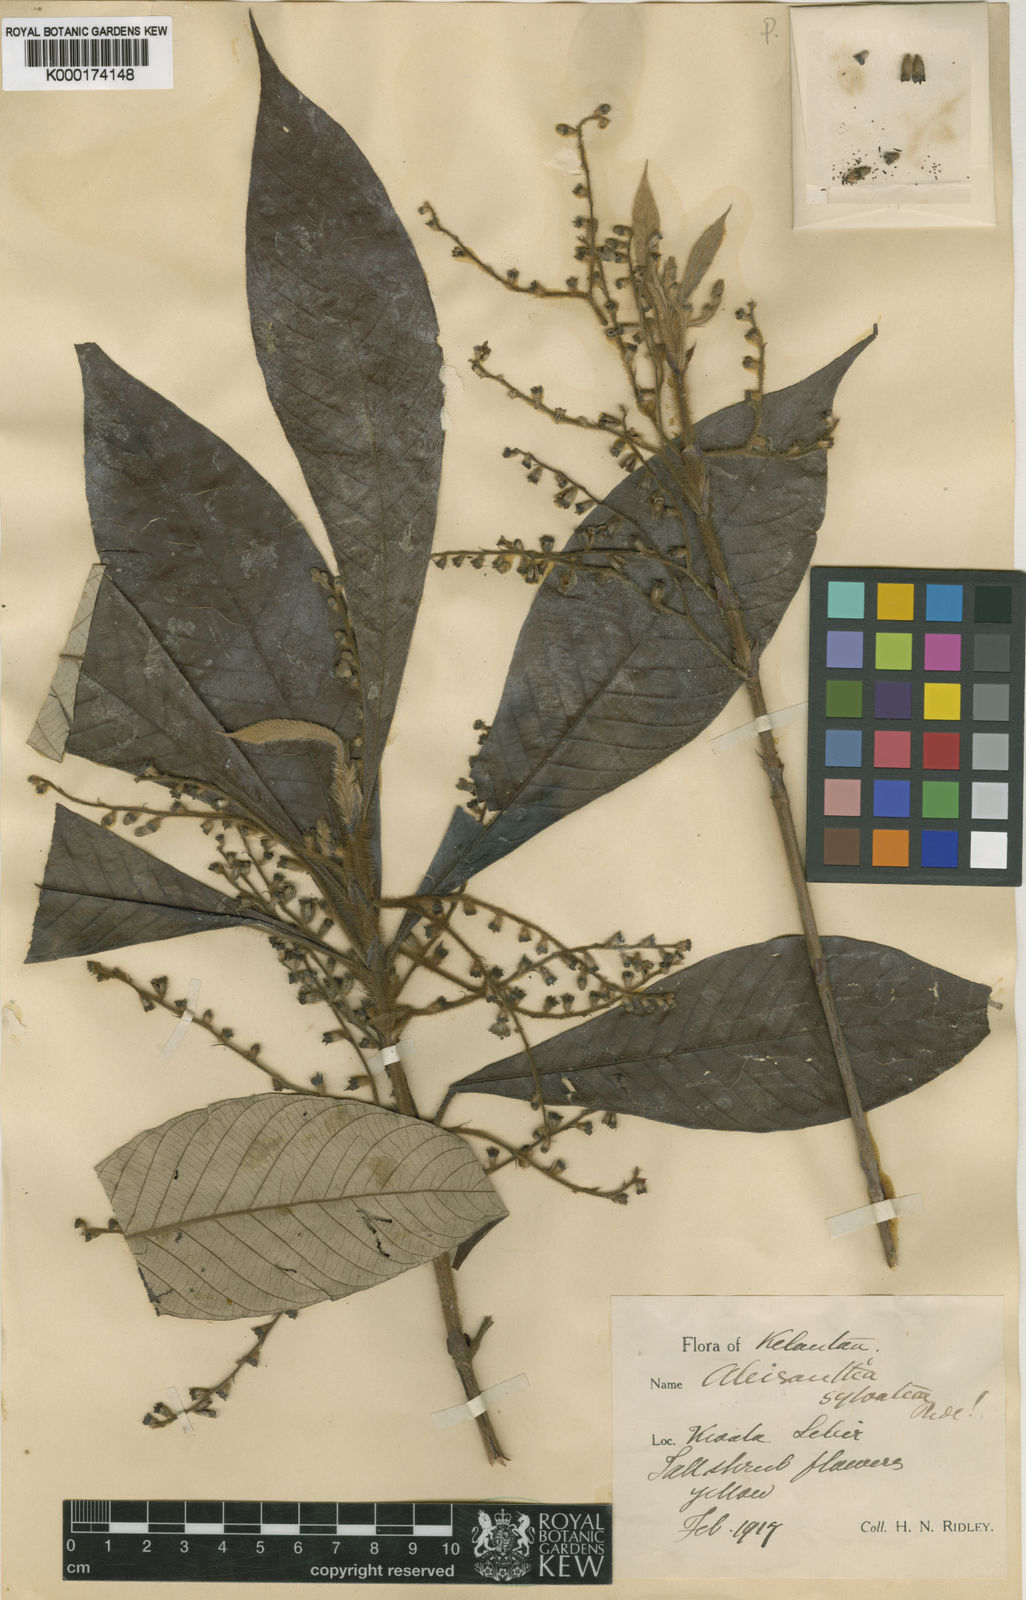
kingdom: Plantae
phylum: Tracheophyta
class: Magnoliopsida
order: Gentianales
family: Rubiaceae
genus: Aleisanthia
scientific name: Aleisanthia sylvatica
